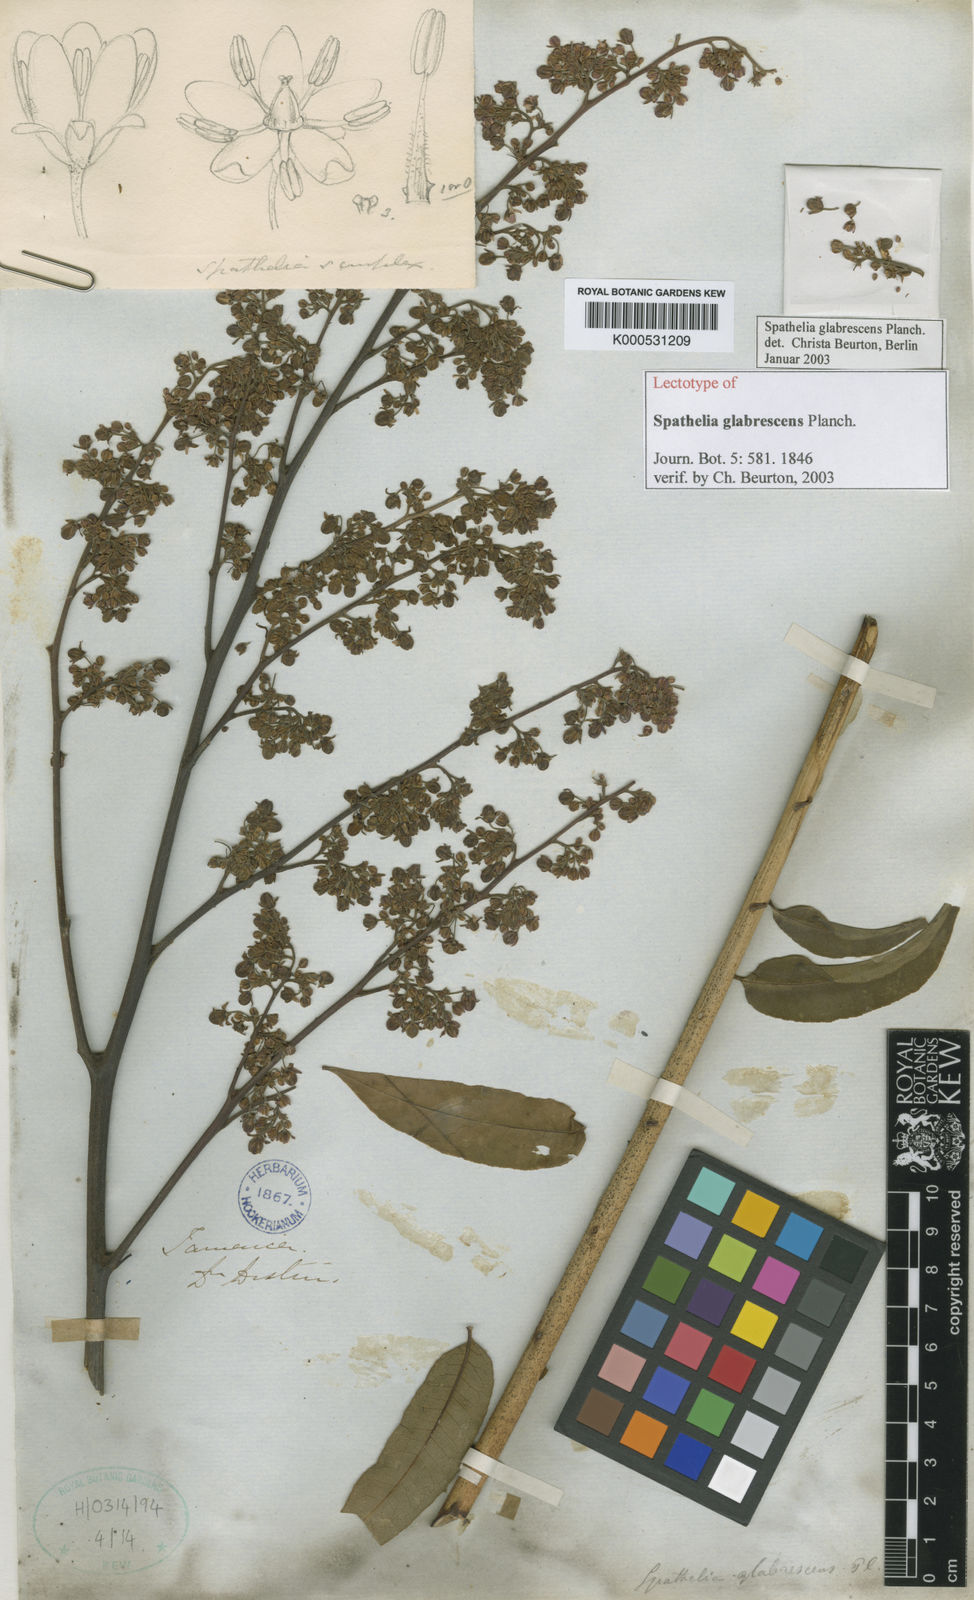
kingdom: Plantae
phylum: Tracheophyta
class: Magnoliopsida
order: Sapindales
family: Rutaceae
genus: Spathelia
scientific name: Spathelia glabrescens
